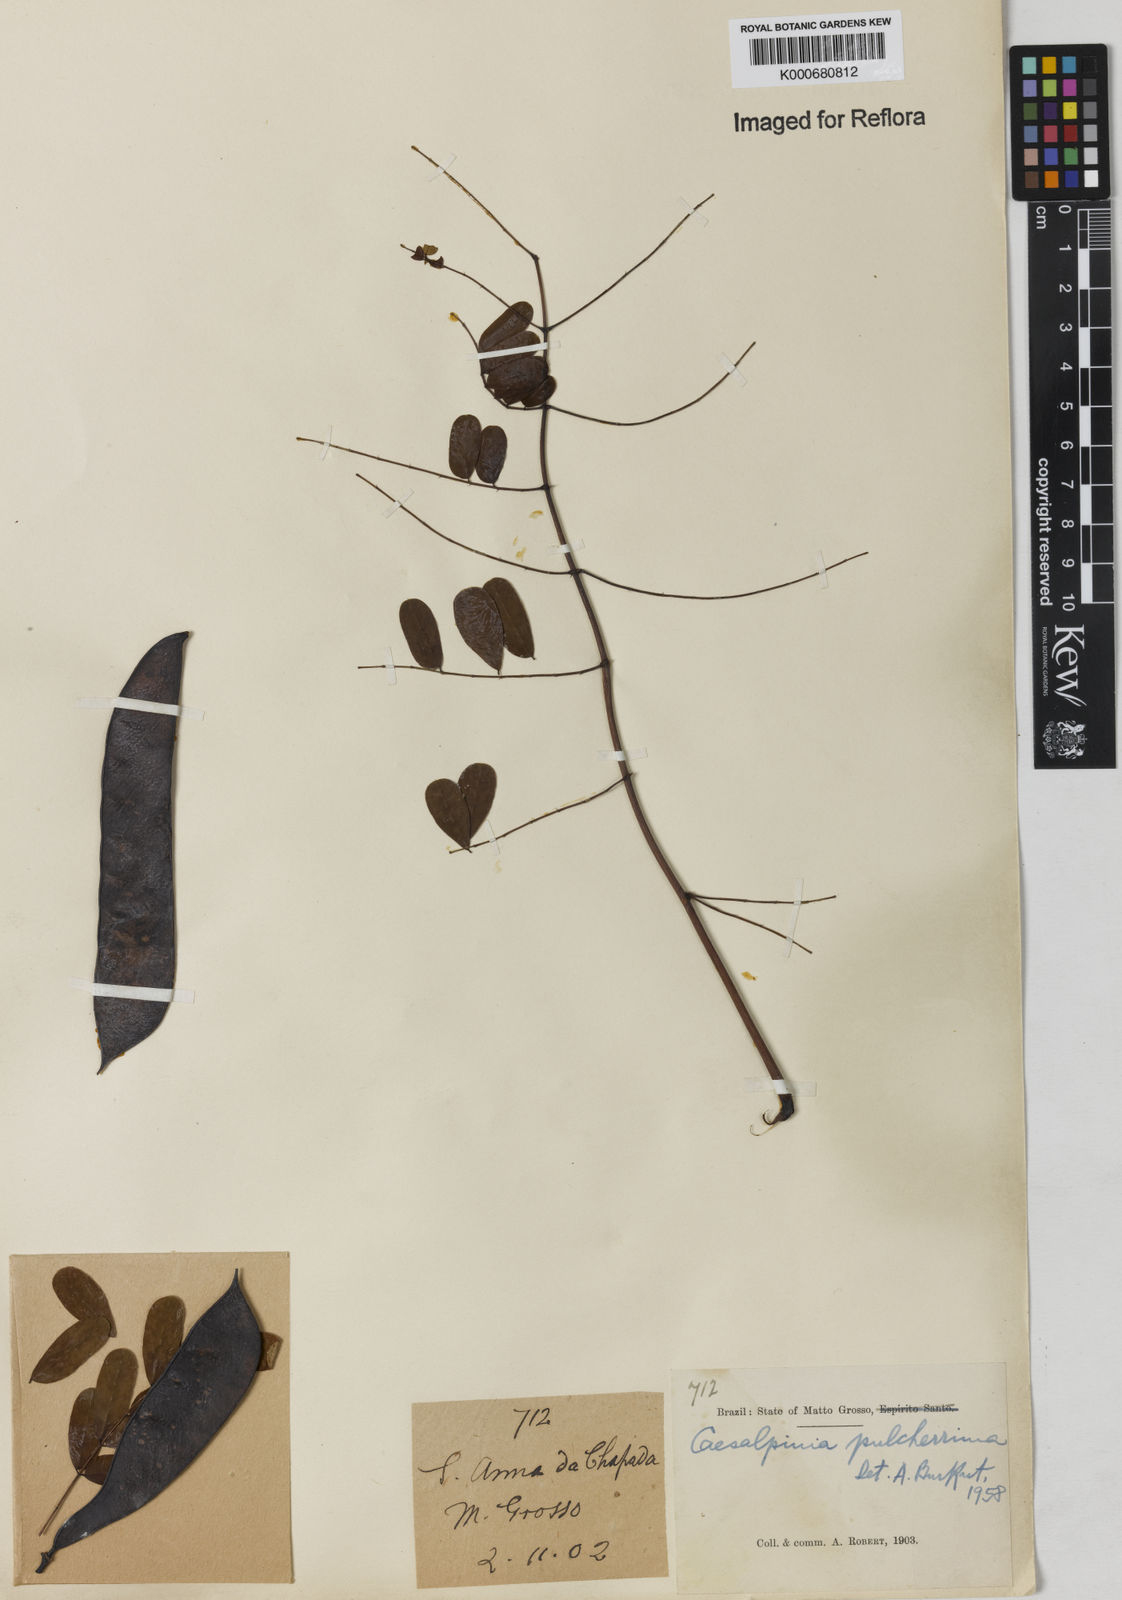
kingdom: Plantae
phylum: Tracheophyta
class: Magnoliopsida
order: Fabales
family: Fabaceae
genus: Caesalpinia
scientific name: Caesalpinia pulcherrima
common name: Pride-of-barbados
